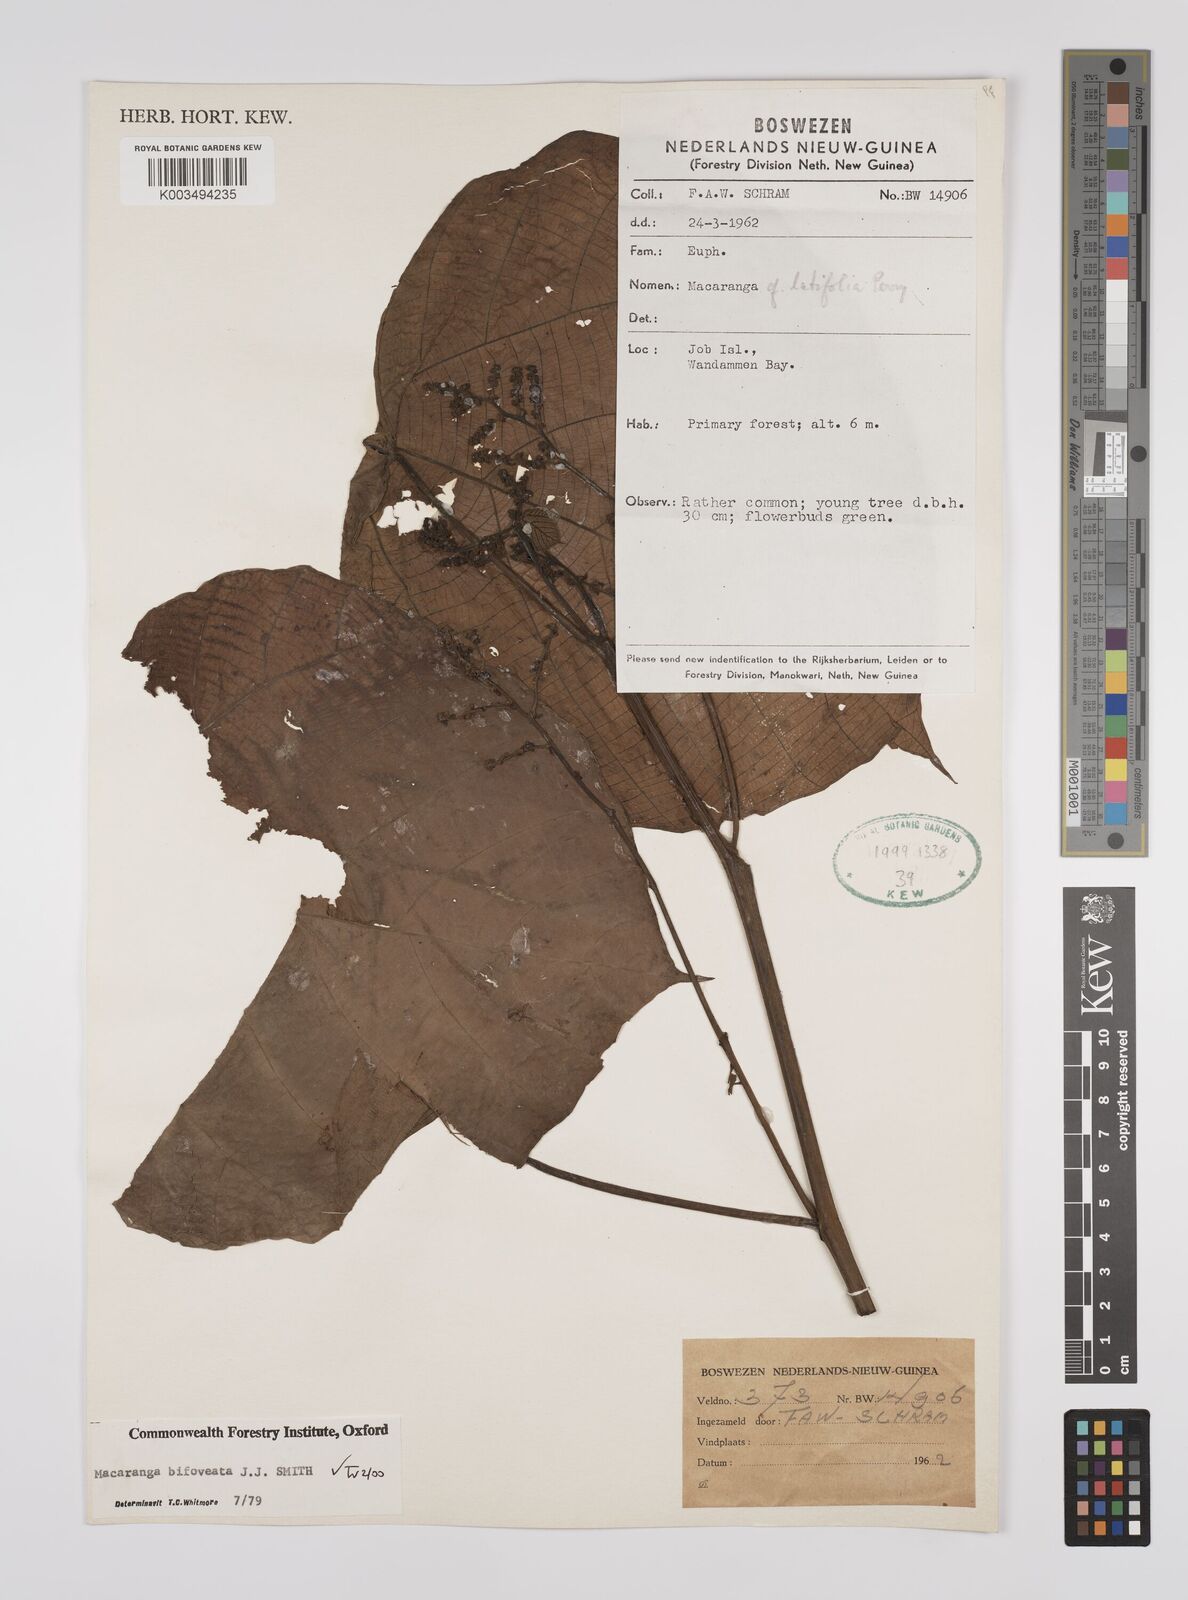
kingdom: Plantae
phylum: Tracheophyta
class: Magnoliopsida
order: Malpighiales
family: Euphorbiaceae
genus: Macaranga
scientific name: Macaranga bifoveata
